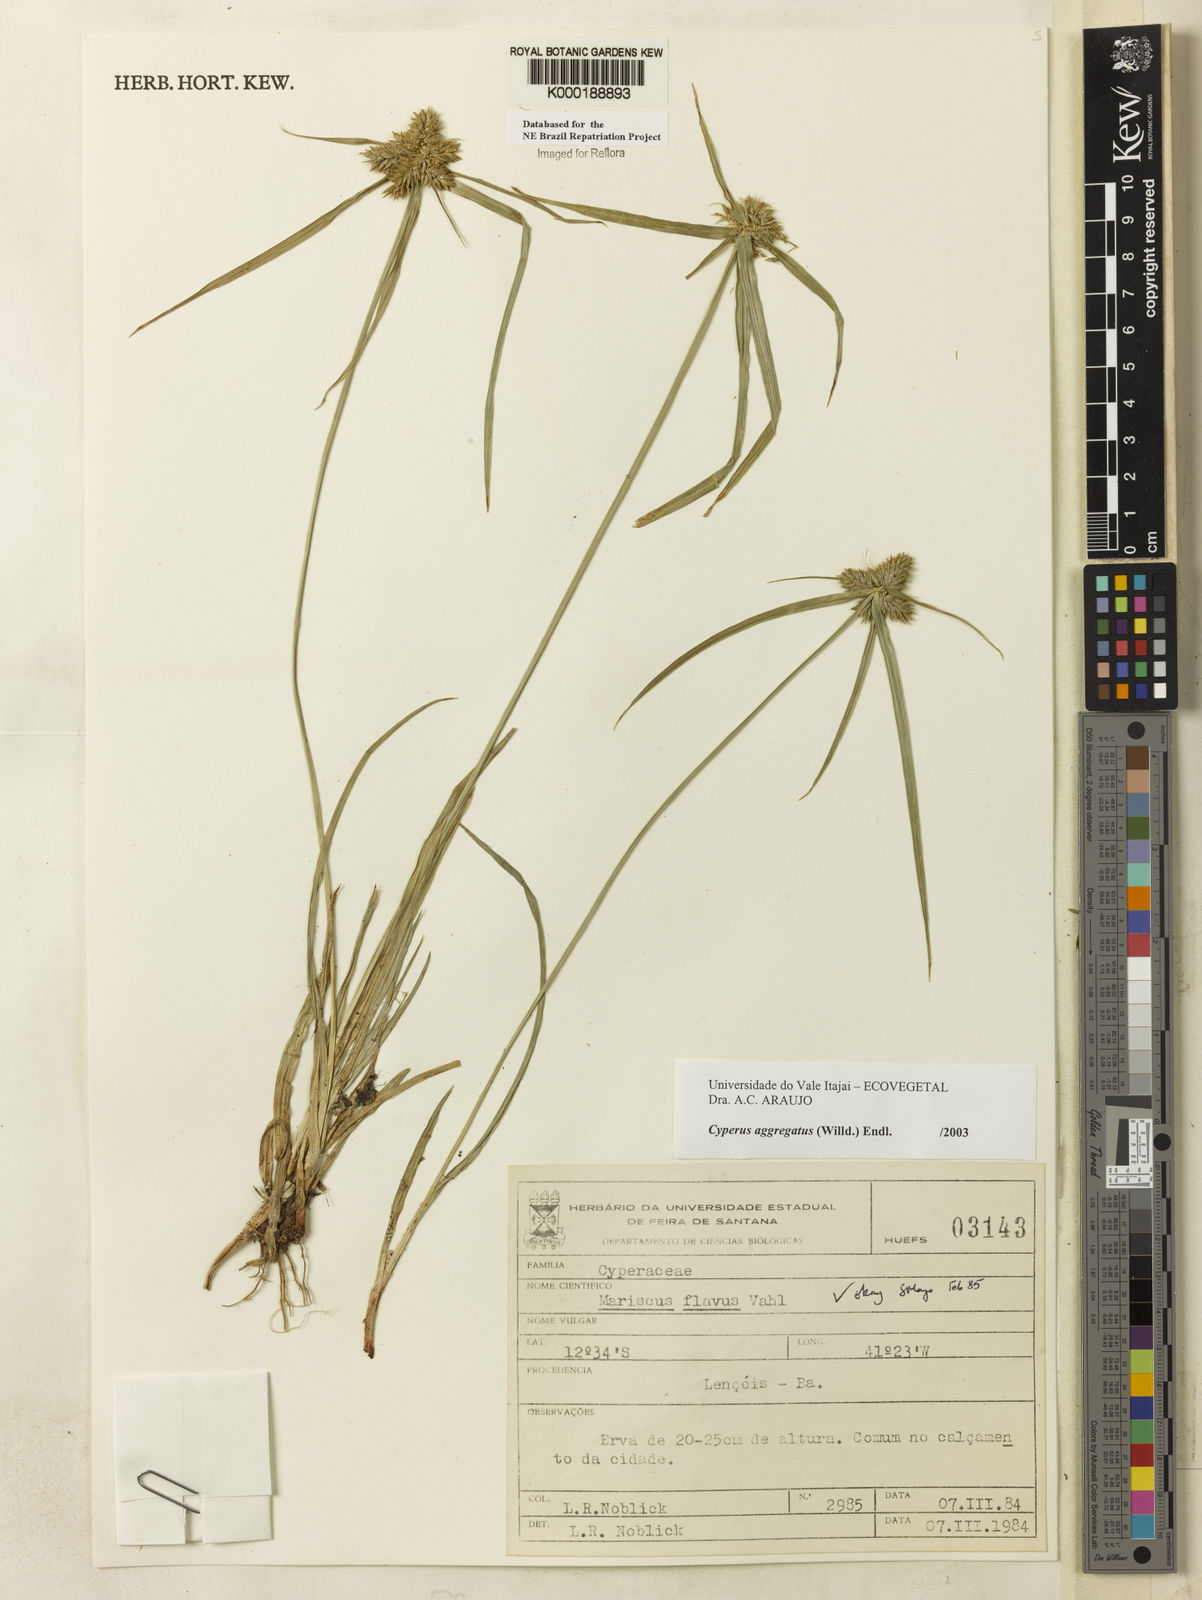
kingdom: Plantae
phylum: Tracheophyta
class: Liliopsida
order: Poales
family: Cyperaceae
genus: Cyperus
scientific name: Cyperus aggregatus
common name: Inflatedscale flatsedge
